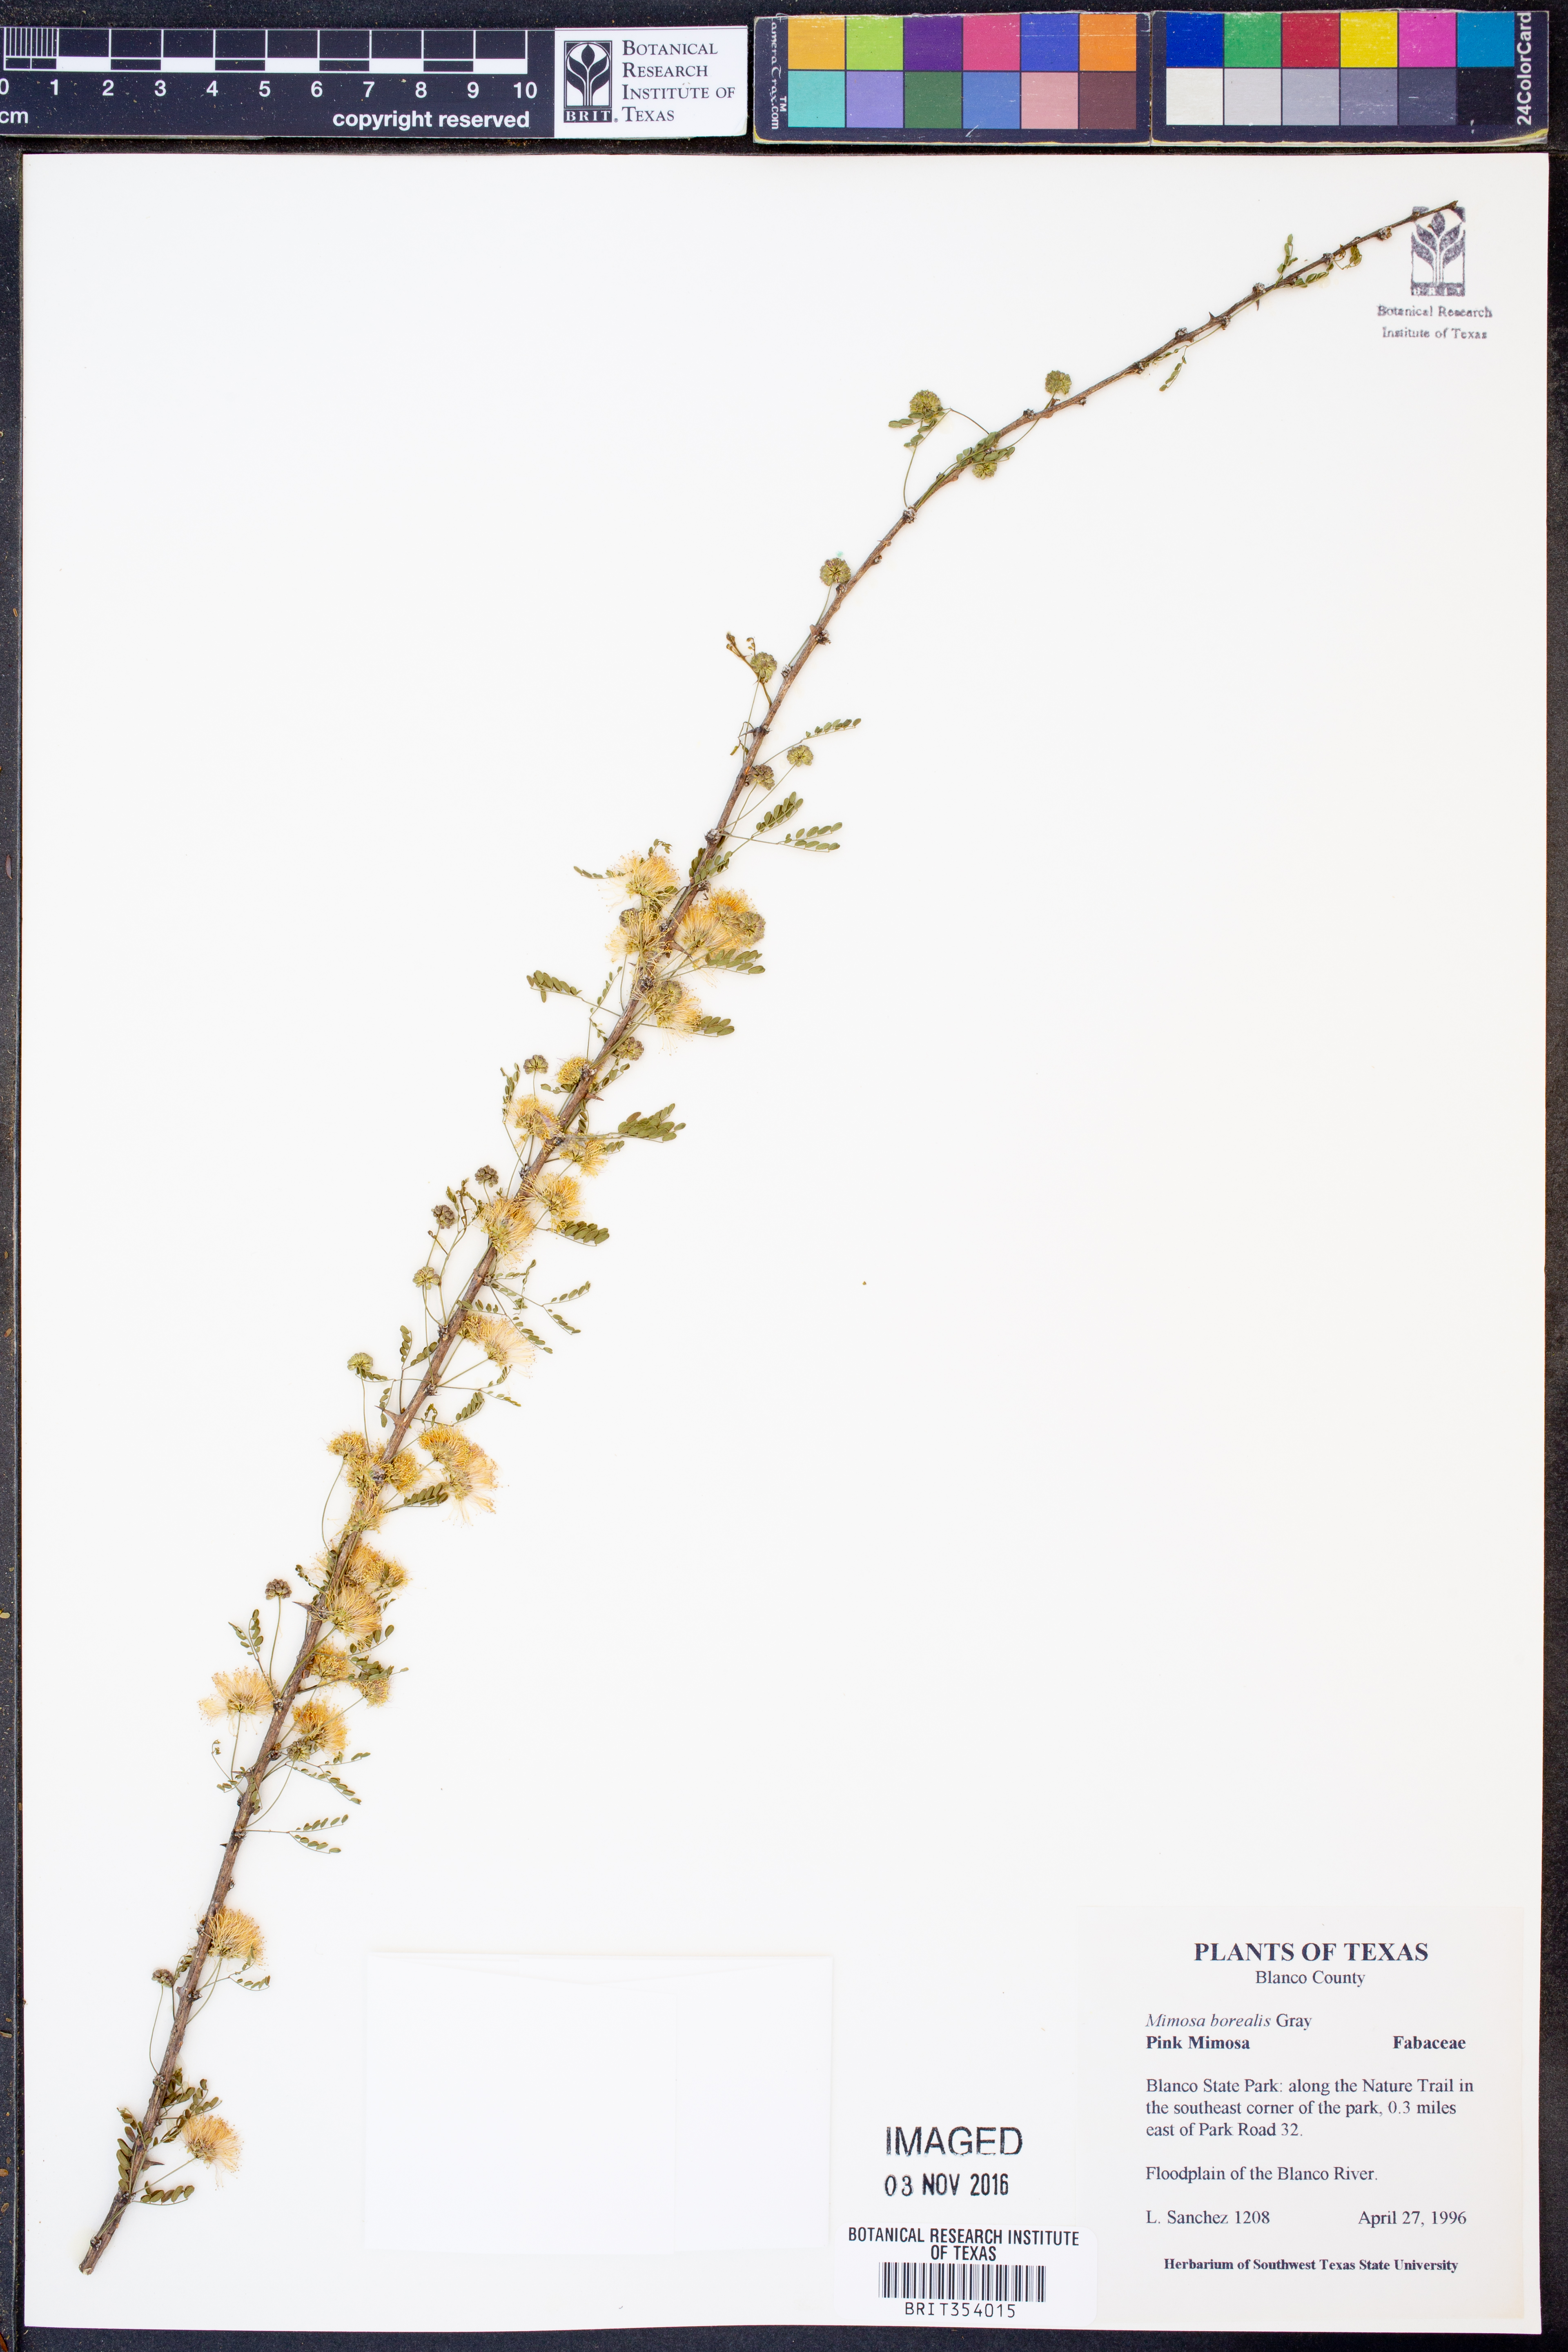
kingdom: Plantae
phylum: Tracheophyta
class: Magnoliopsida
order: Fabales
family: Fabaceae
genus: Mimosa
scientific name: Mimosa borealis
